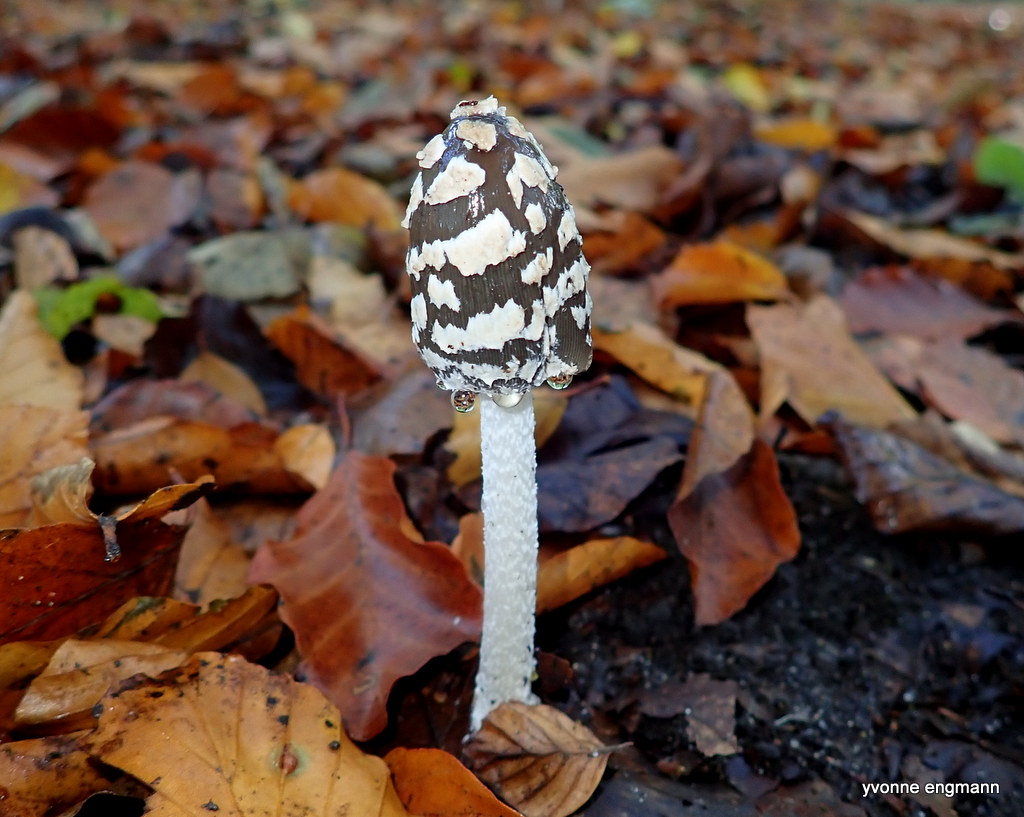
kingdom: Fungi
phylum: Basidiomycota
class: Agaricomycetes
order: Agaricales
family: Psathyrellaceae
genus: Coprinopsis
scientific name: Coprinopsis picacea
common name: skade-blækhat
